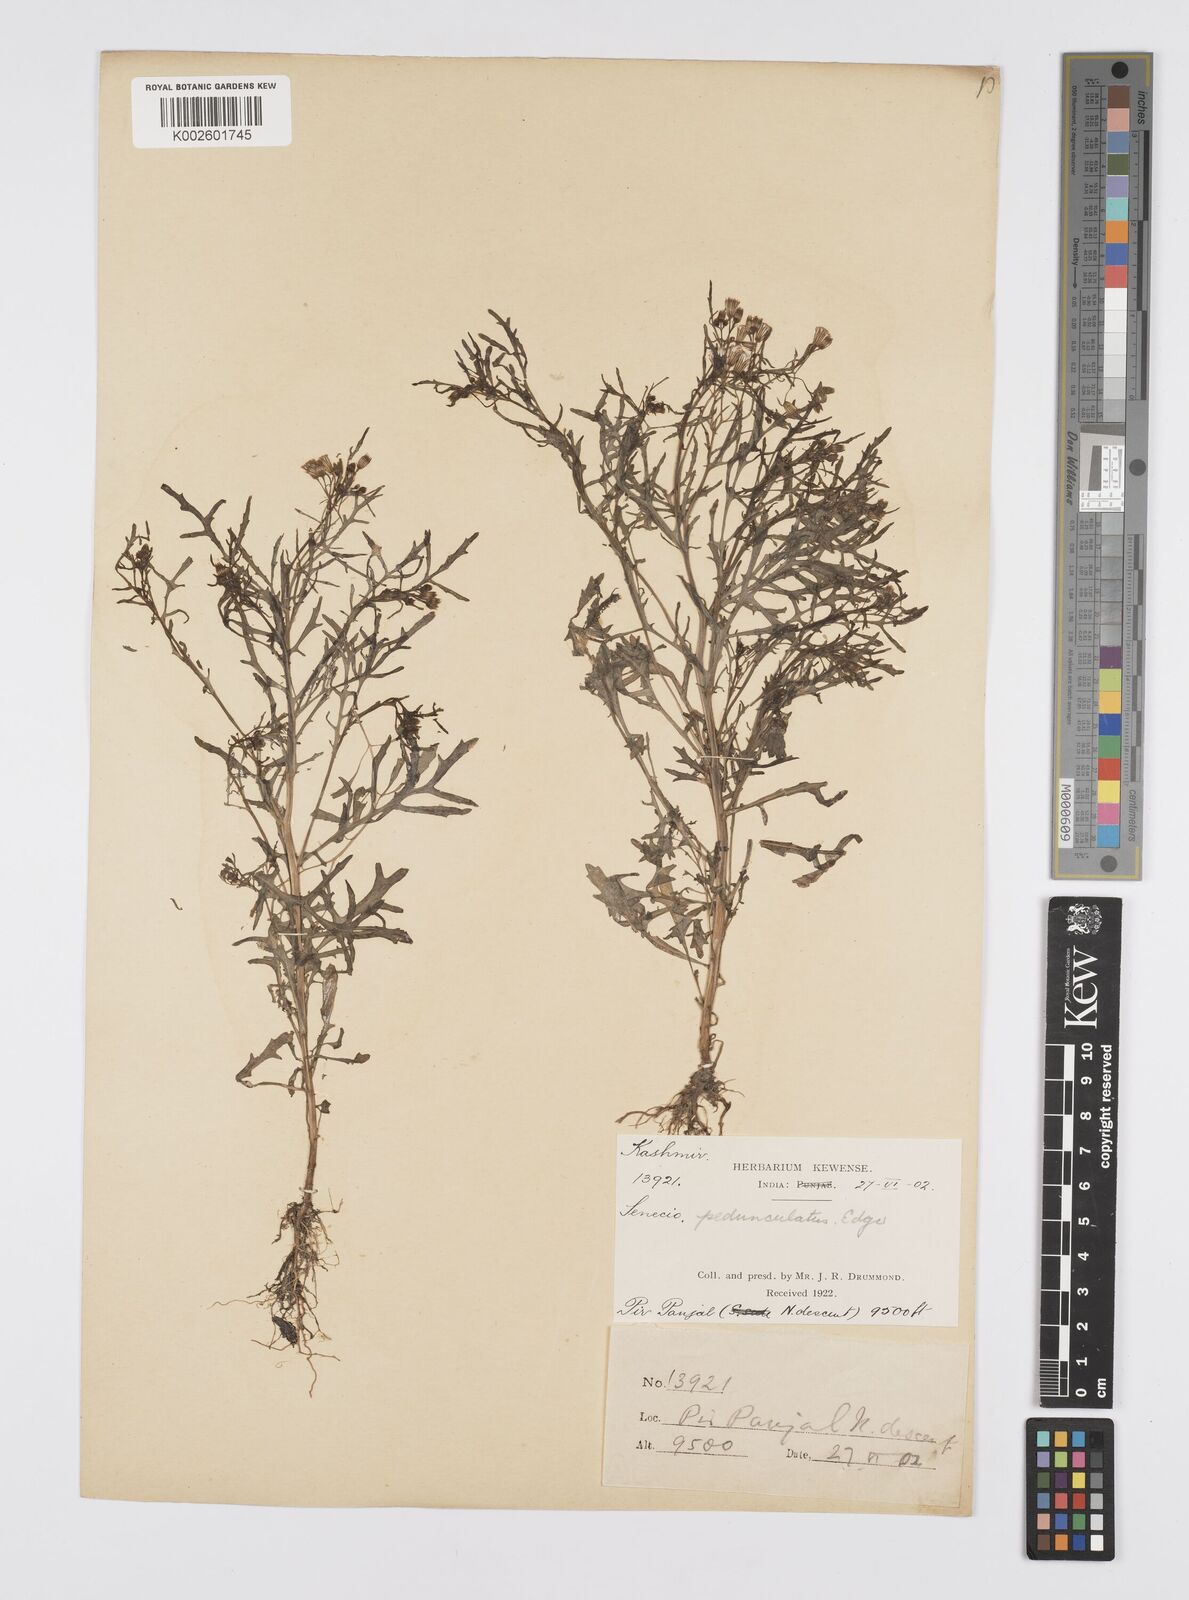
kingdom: Plantae
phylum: Tracheophyta
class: Magnoliopsida
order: Asterales
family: Asteraceae
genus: Senecio
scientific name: Senecio krascheninnikovii
